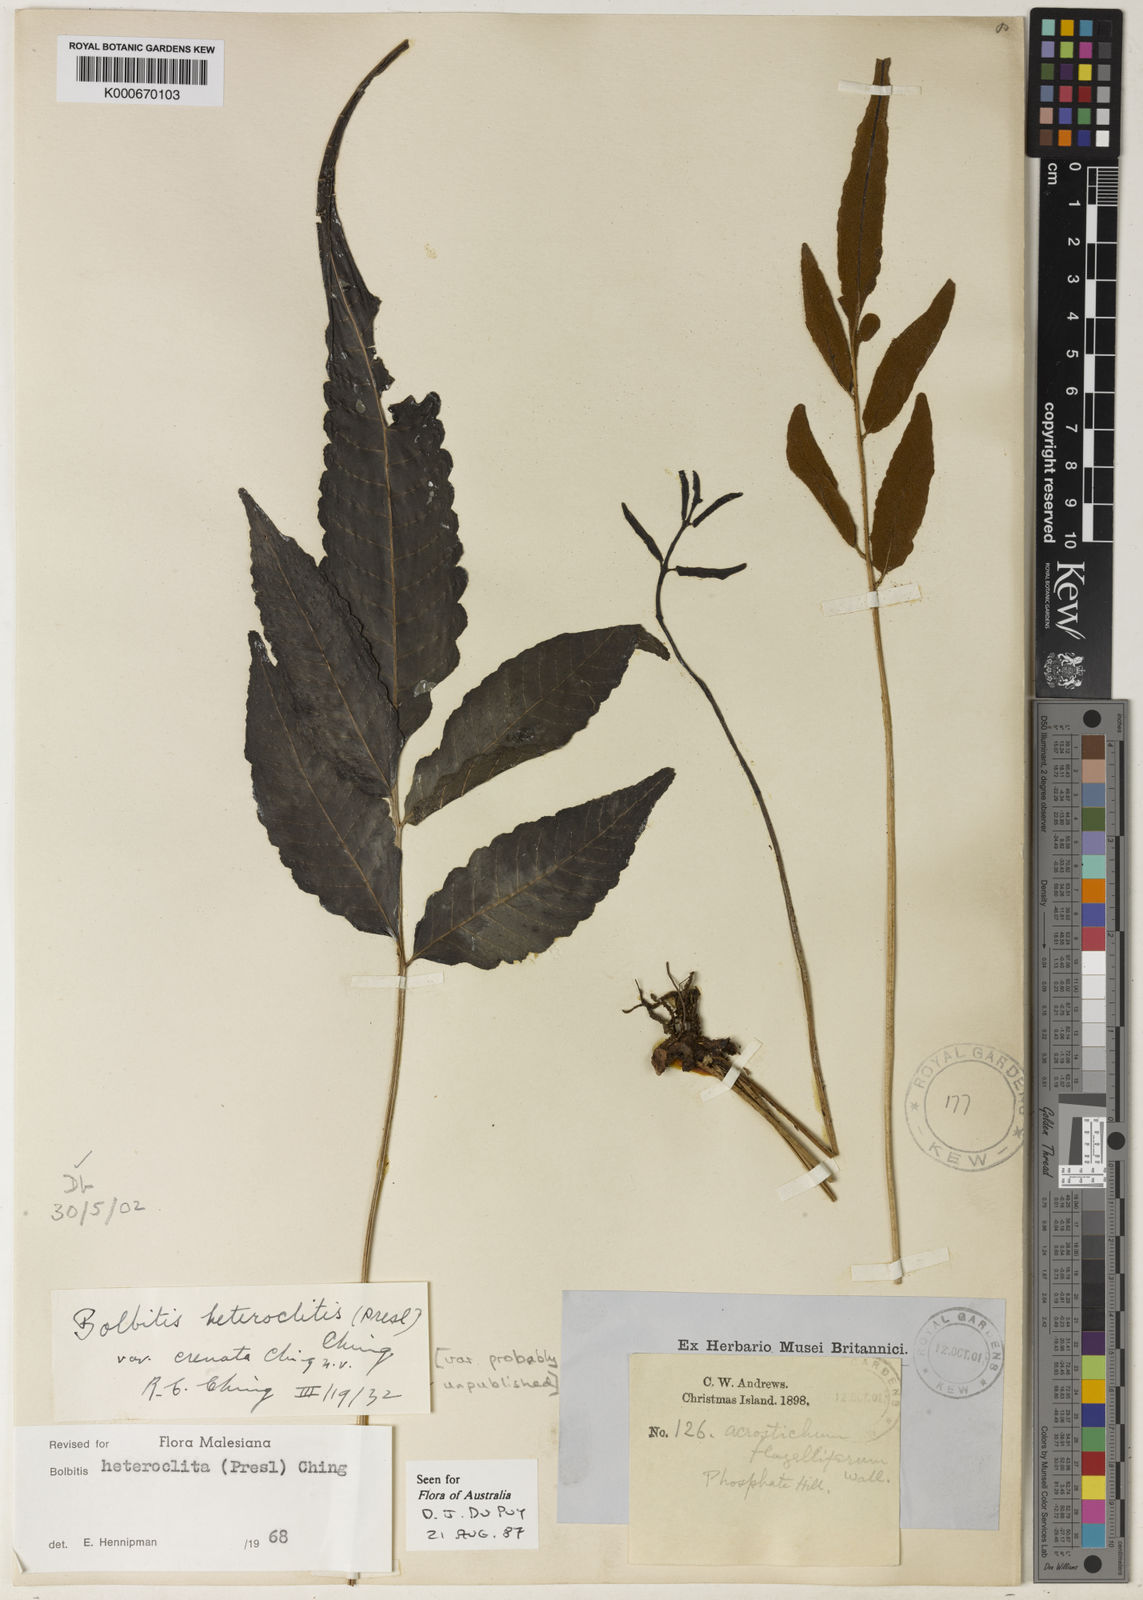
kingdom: Plantae
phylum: Tracheophyta
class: Polypodiopsida
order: Polypodiales
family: Dryopteridaceae
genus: Bolbitis
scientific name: Bolbitis heteroclita
